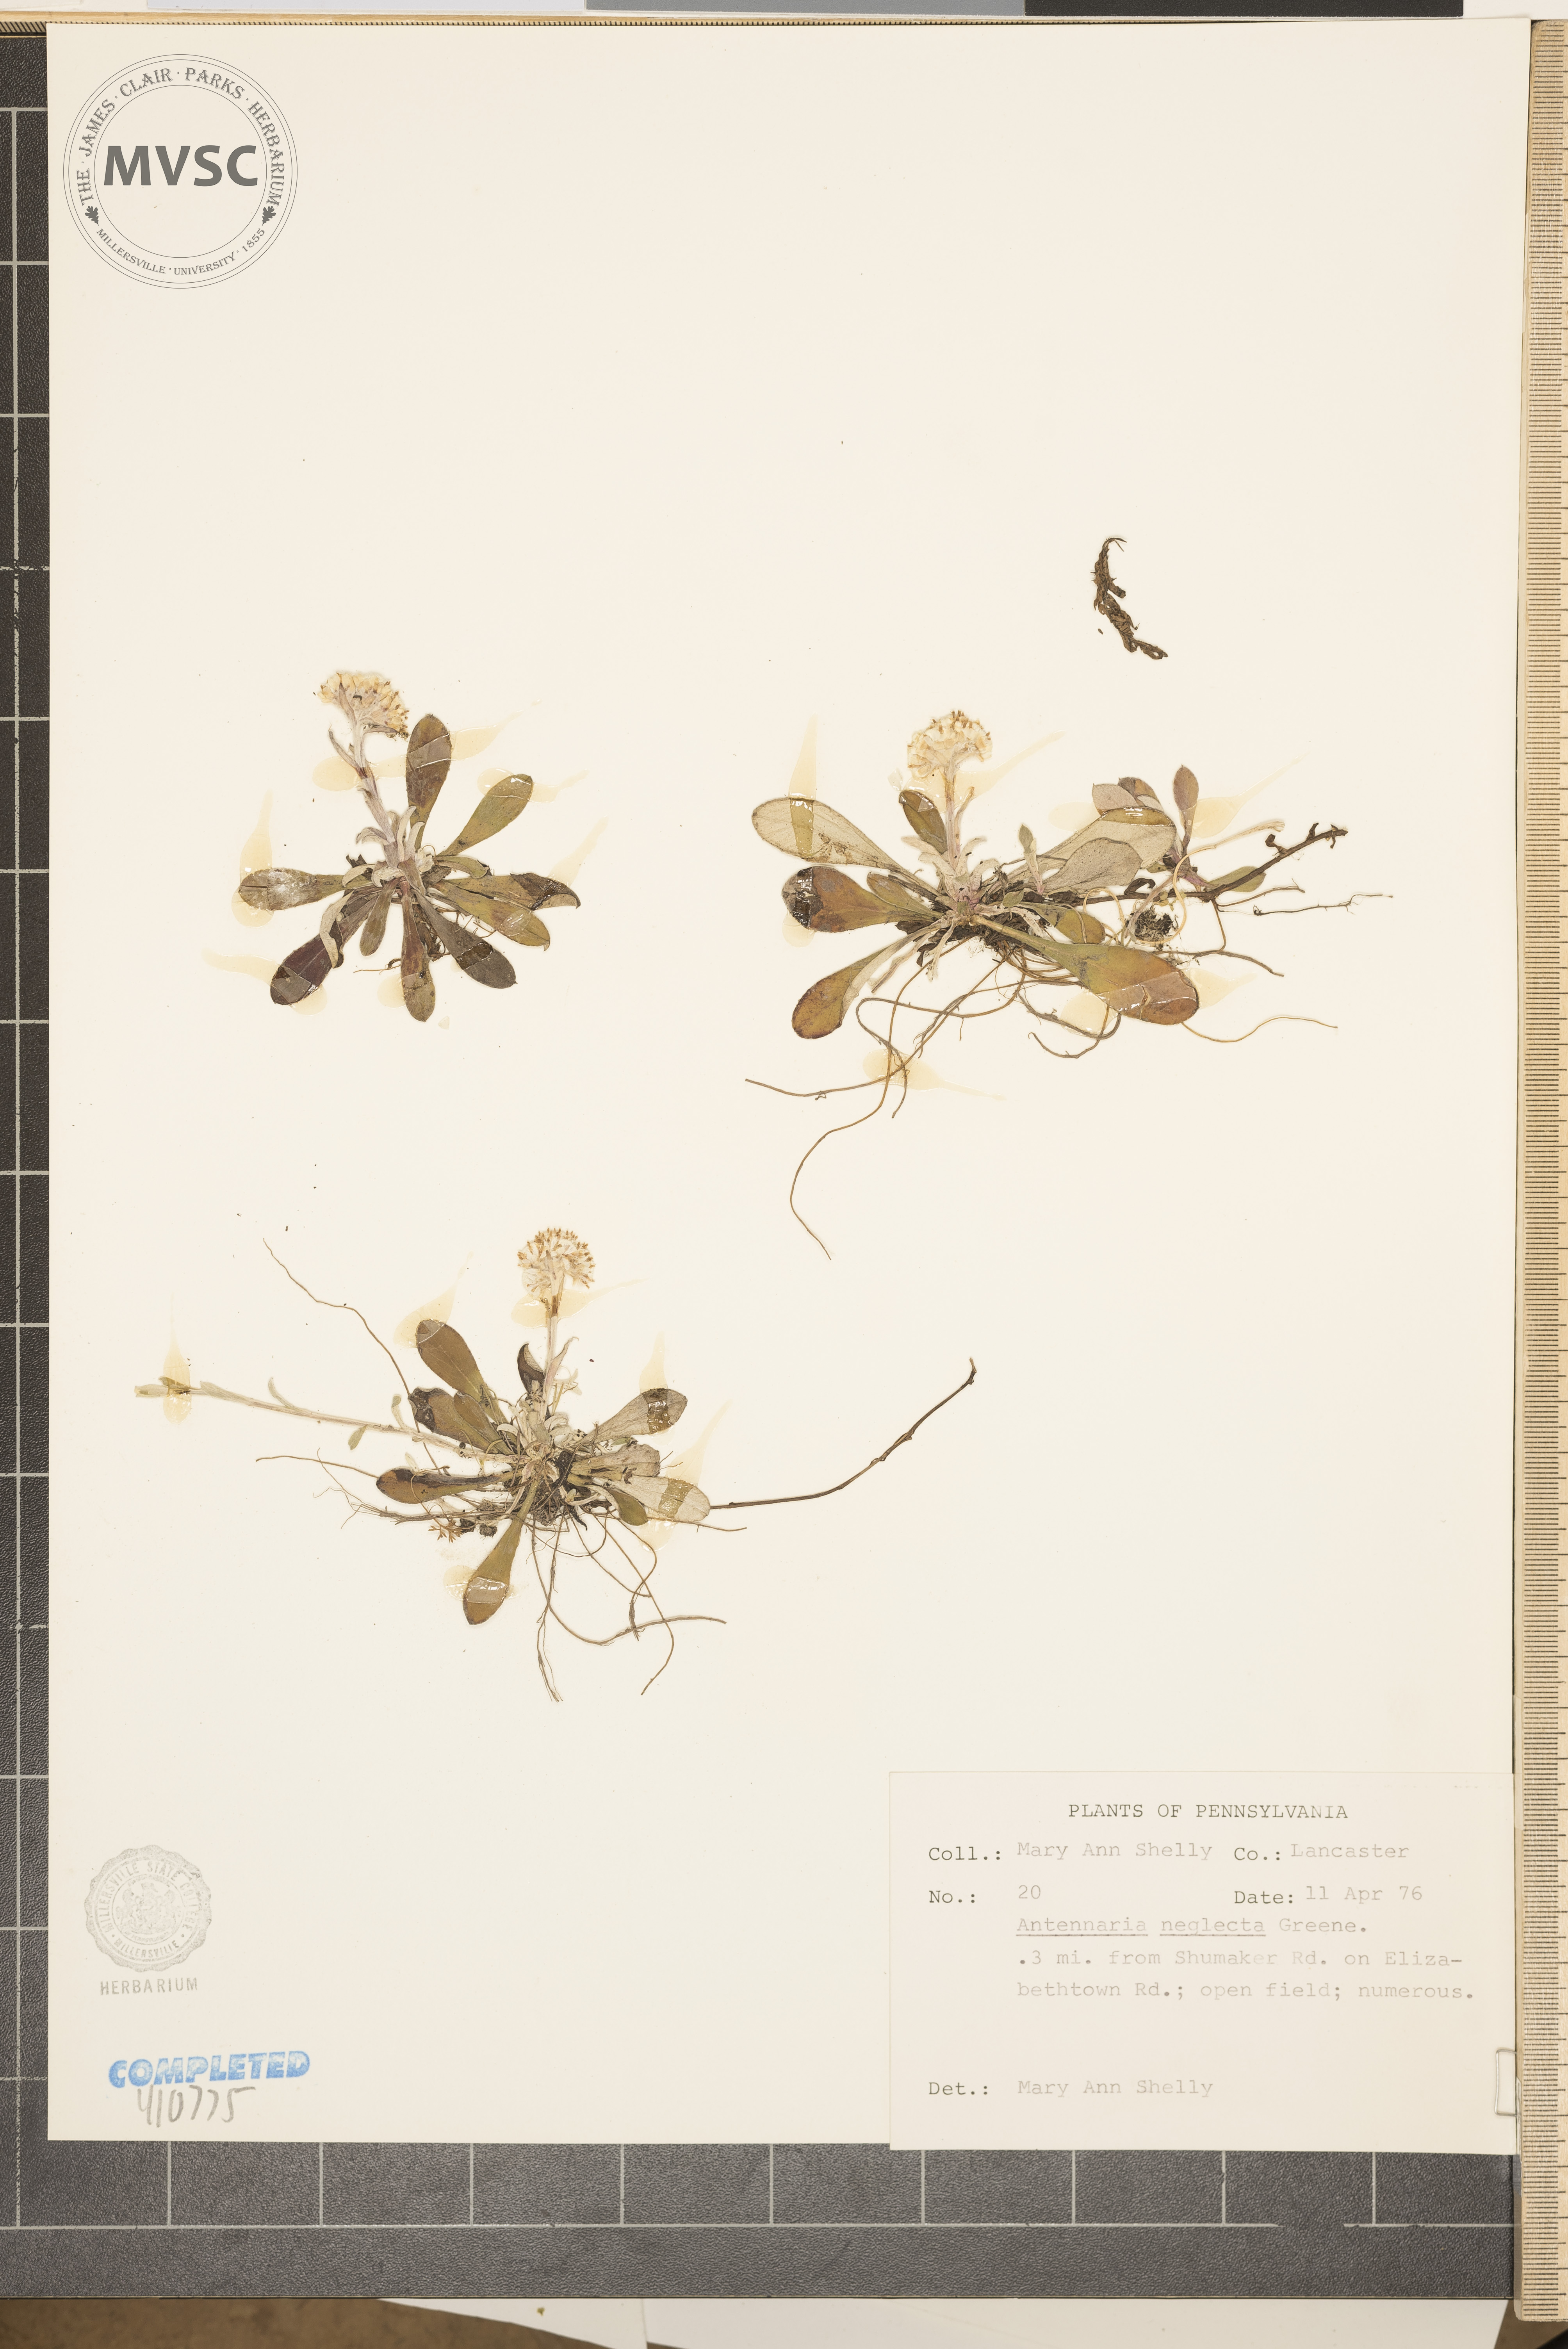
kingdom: Plantae
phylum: Tracheophyta
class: Magnoliopsida
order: Asterales
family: Asteraceae
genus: Antennaria
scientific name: Antennaria neglecta
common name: Field pussytoes
